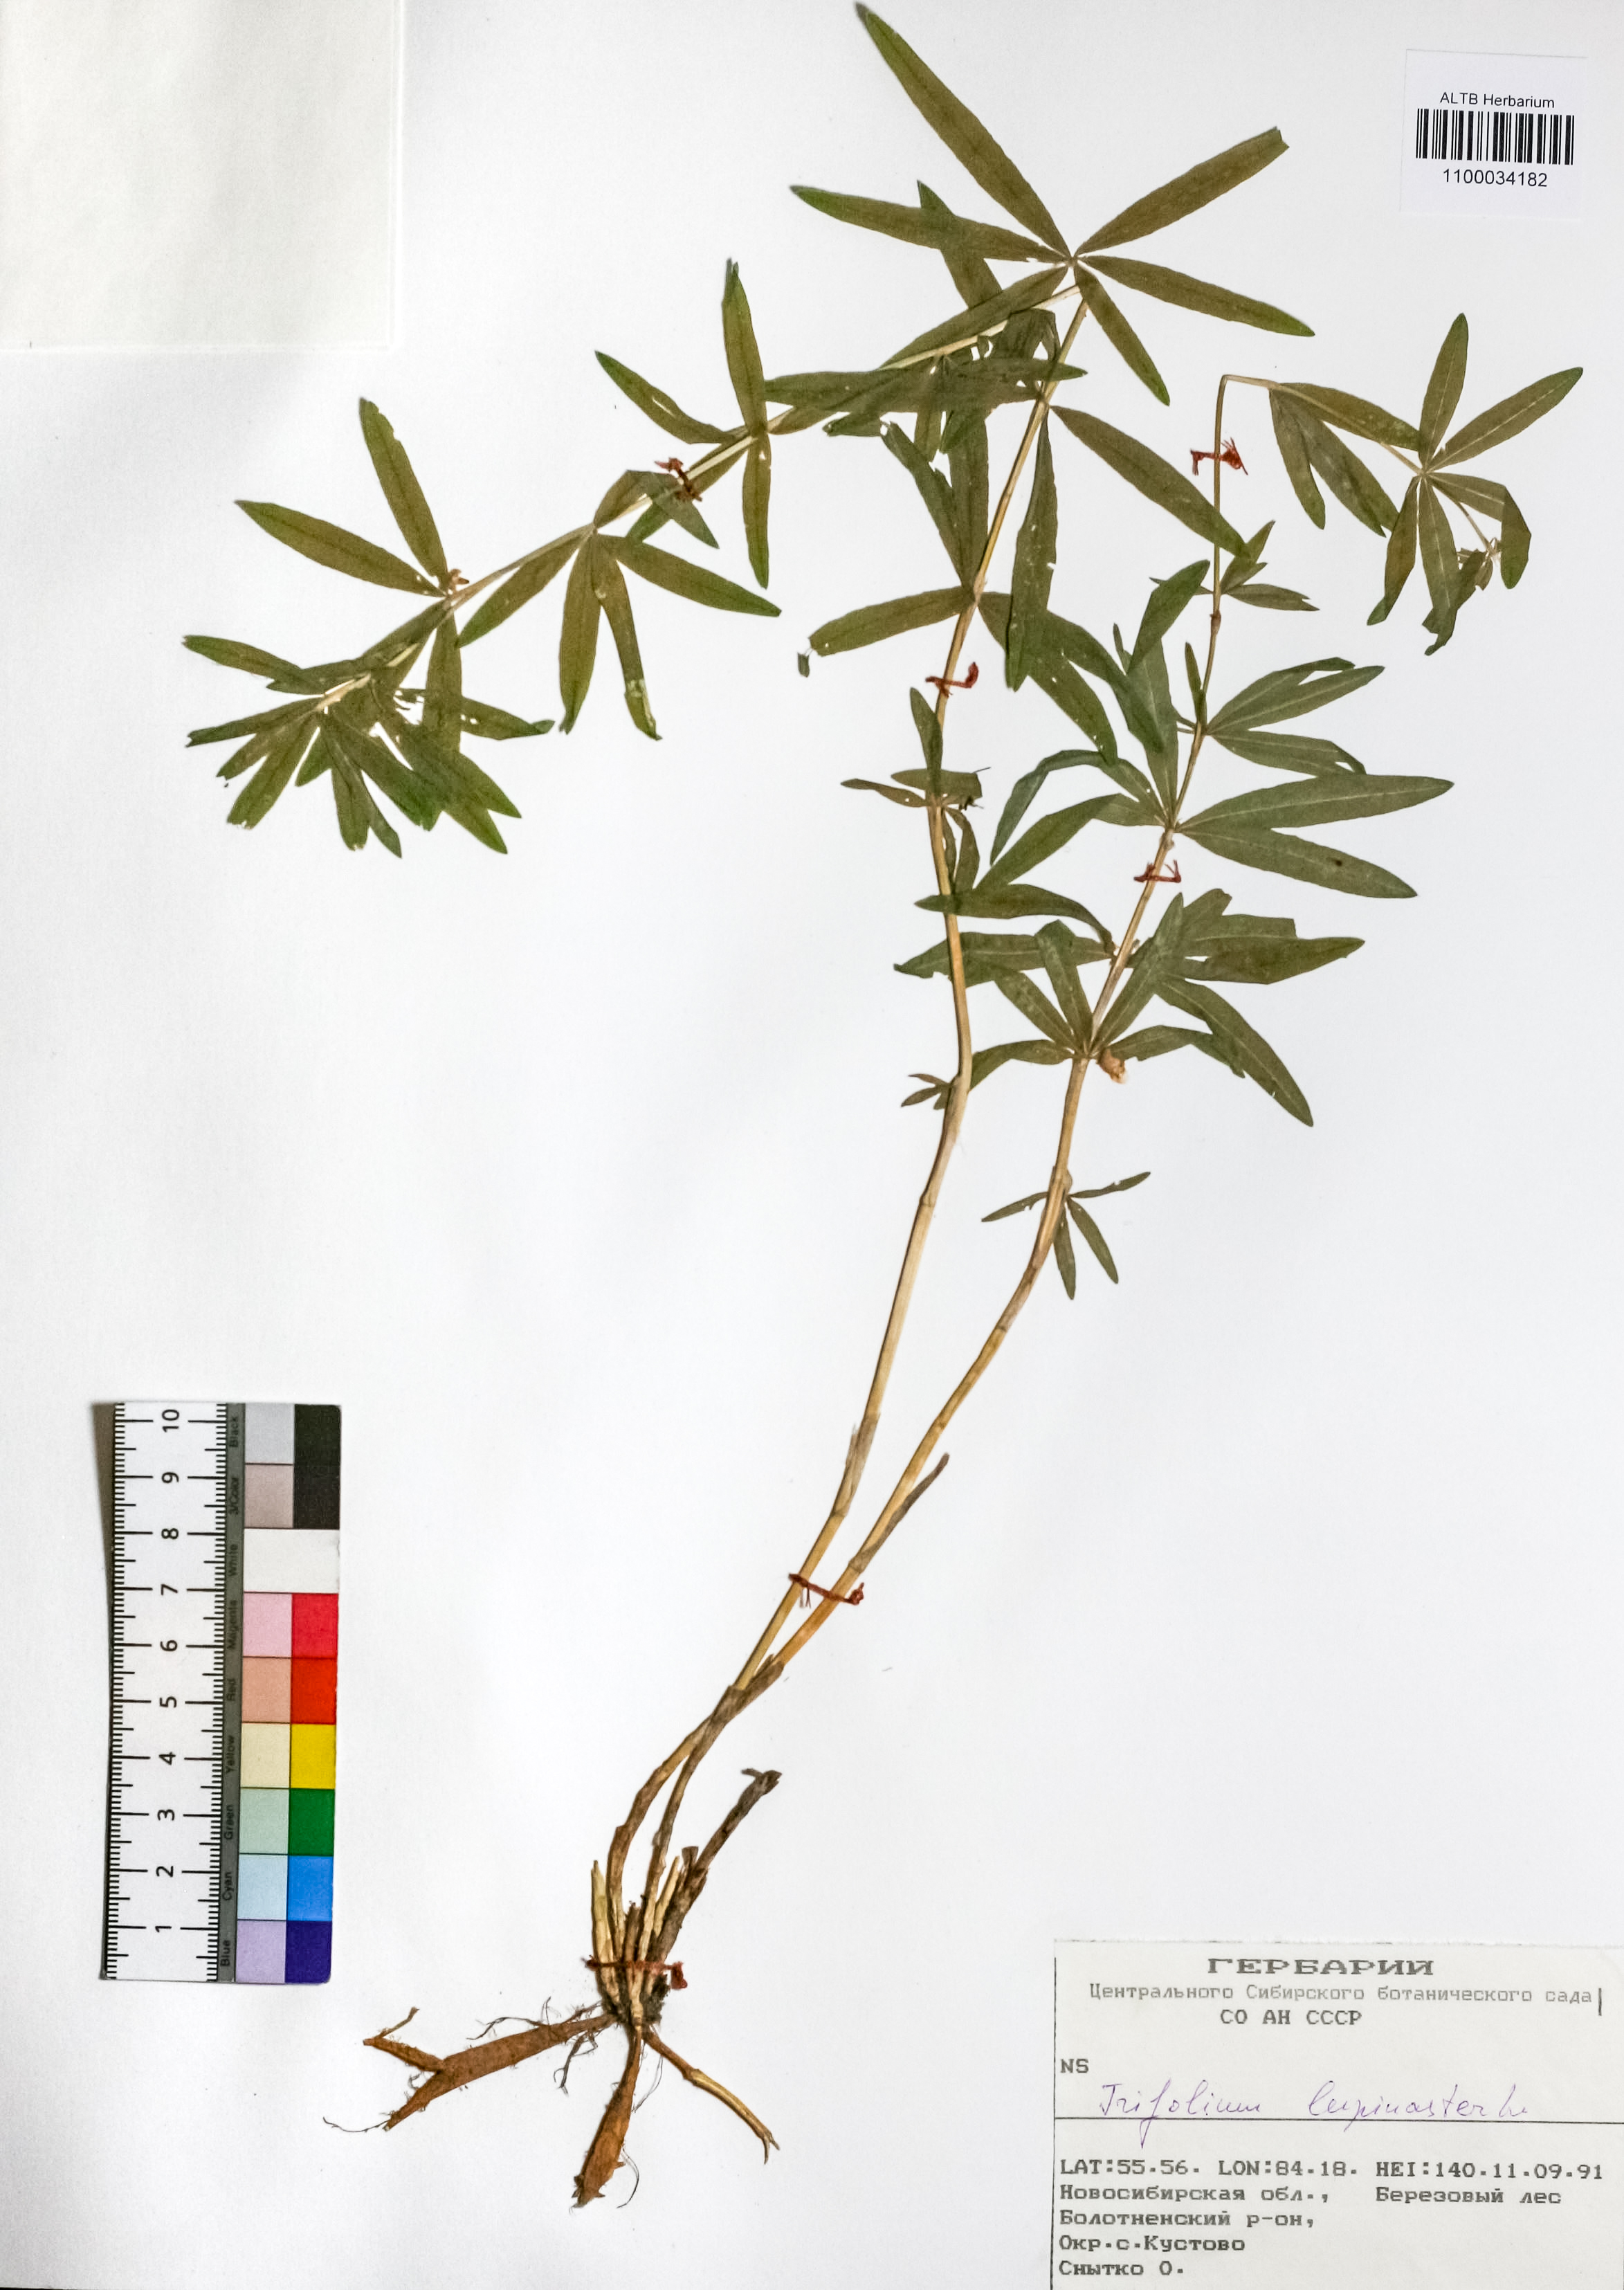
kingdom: Plantae
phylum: Tracheophyta
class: Magnoliopsida
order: Fabales
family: Fabaceae
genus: Trifolium
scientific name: Trifolium lupinaster
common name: Lupine clover
